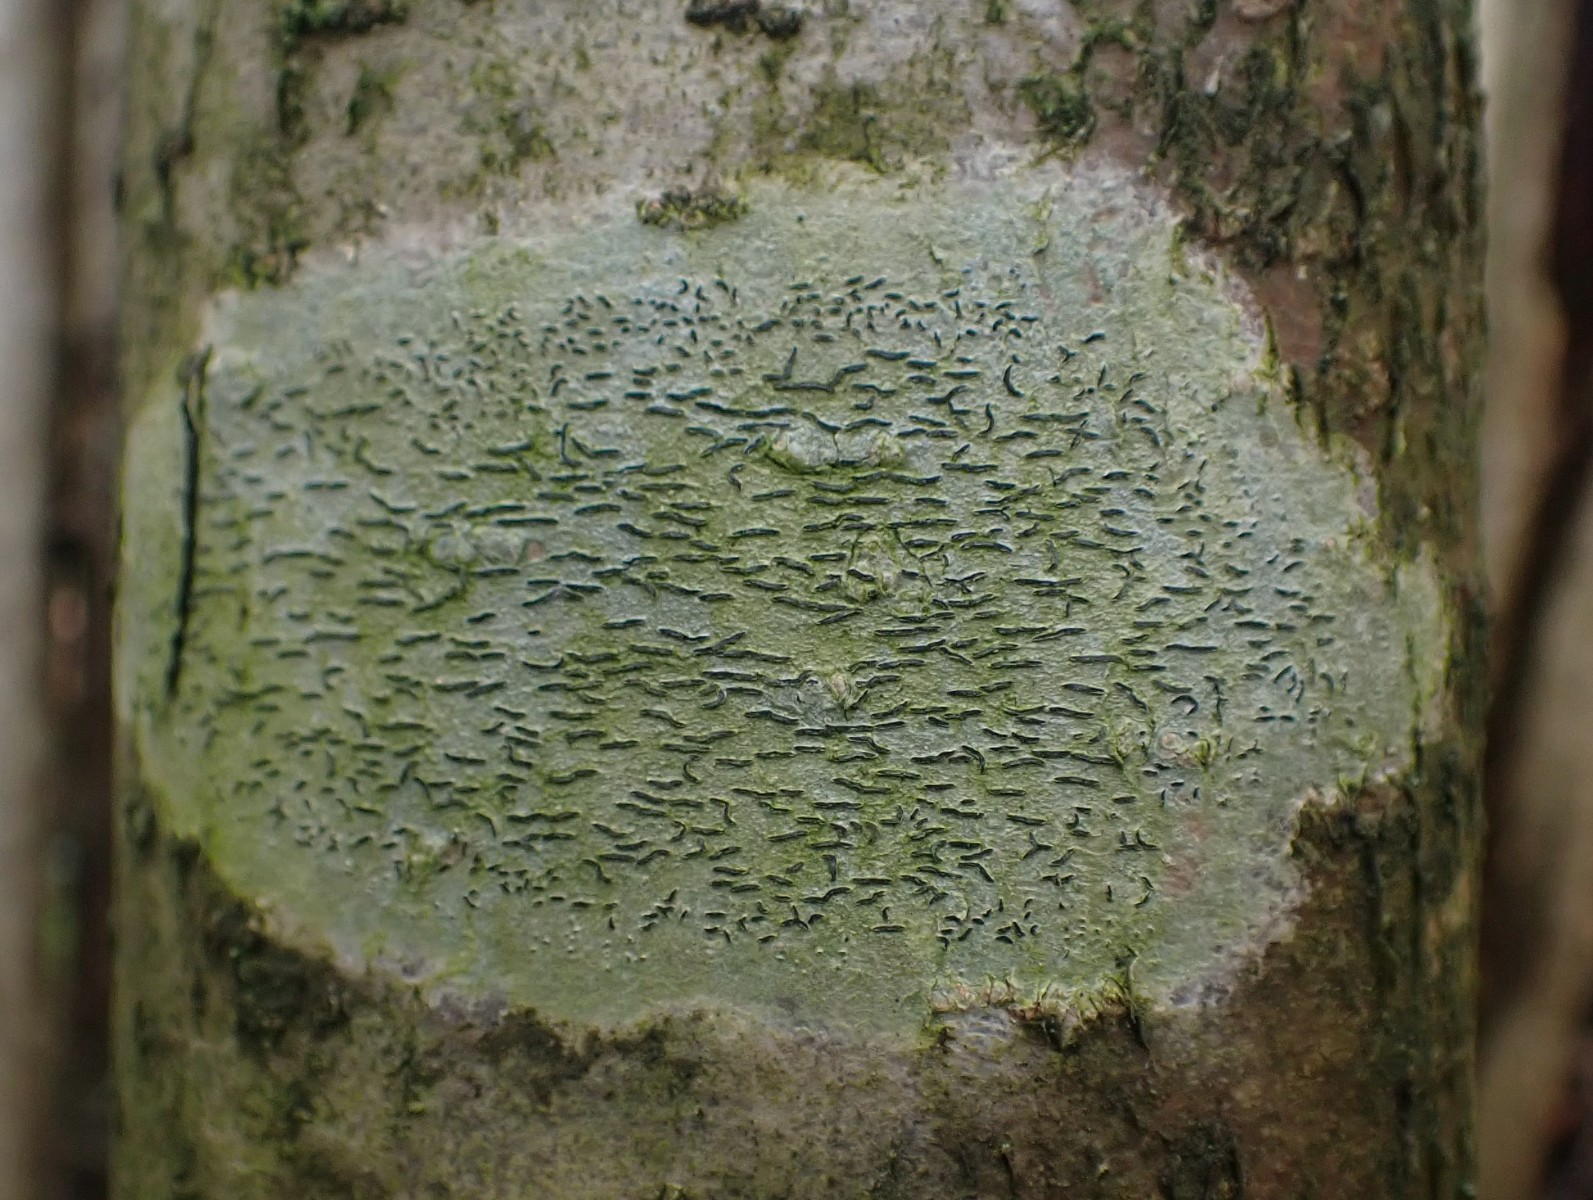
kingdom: Fungi
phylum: Ascomycota
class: Lecanoromycetes
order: Ostropales
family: Graphidaceae
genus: Graphis
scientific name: Graphis scripta
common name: almindelig skriftlav
